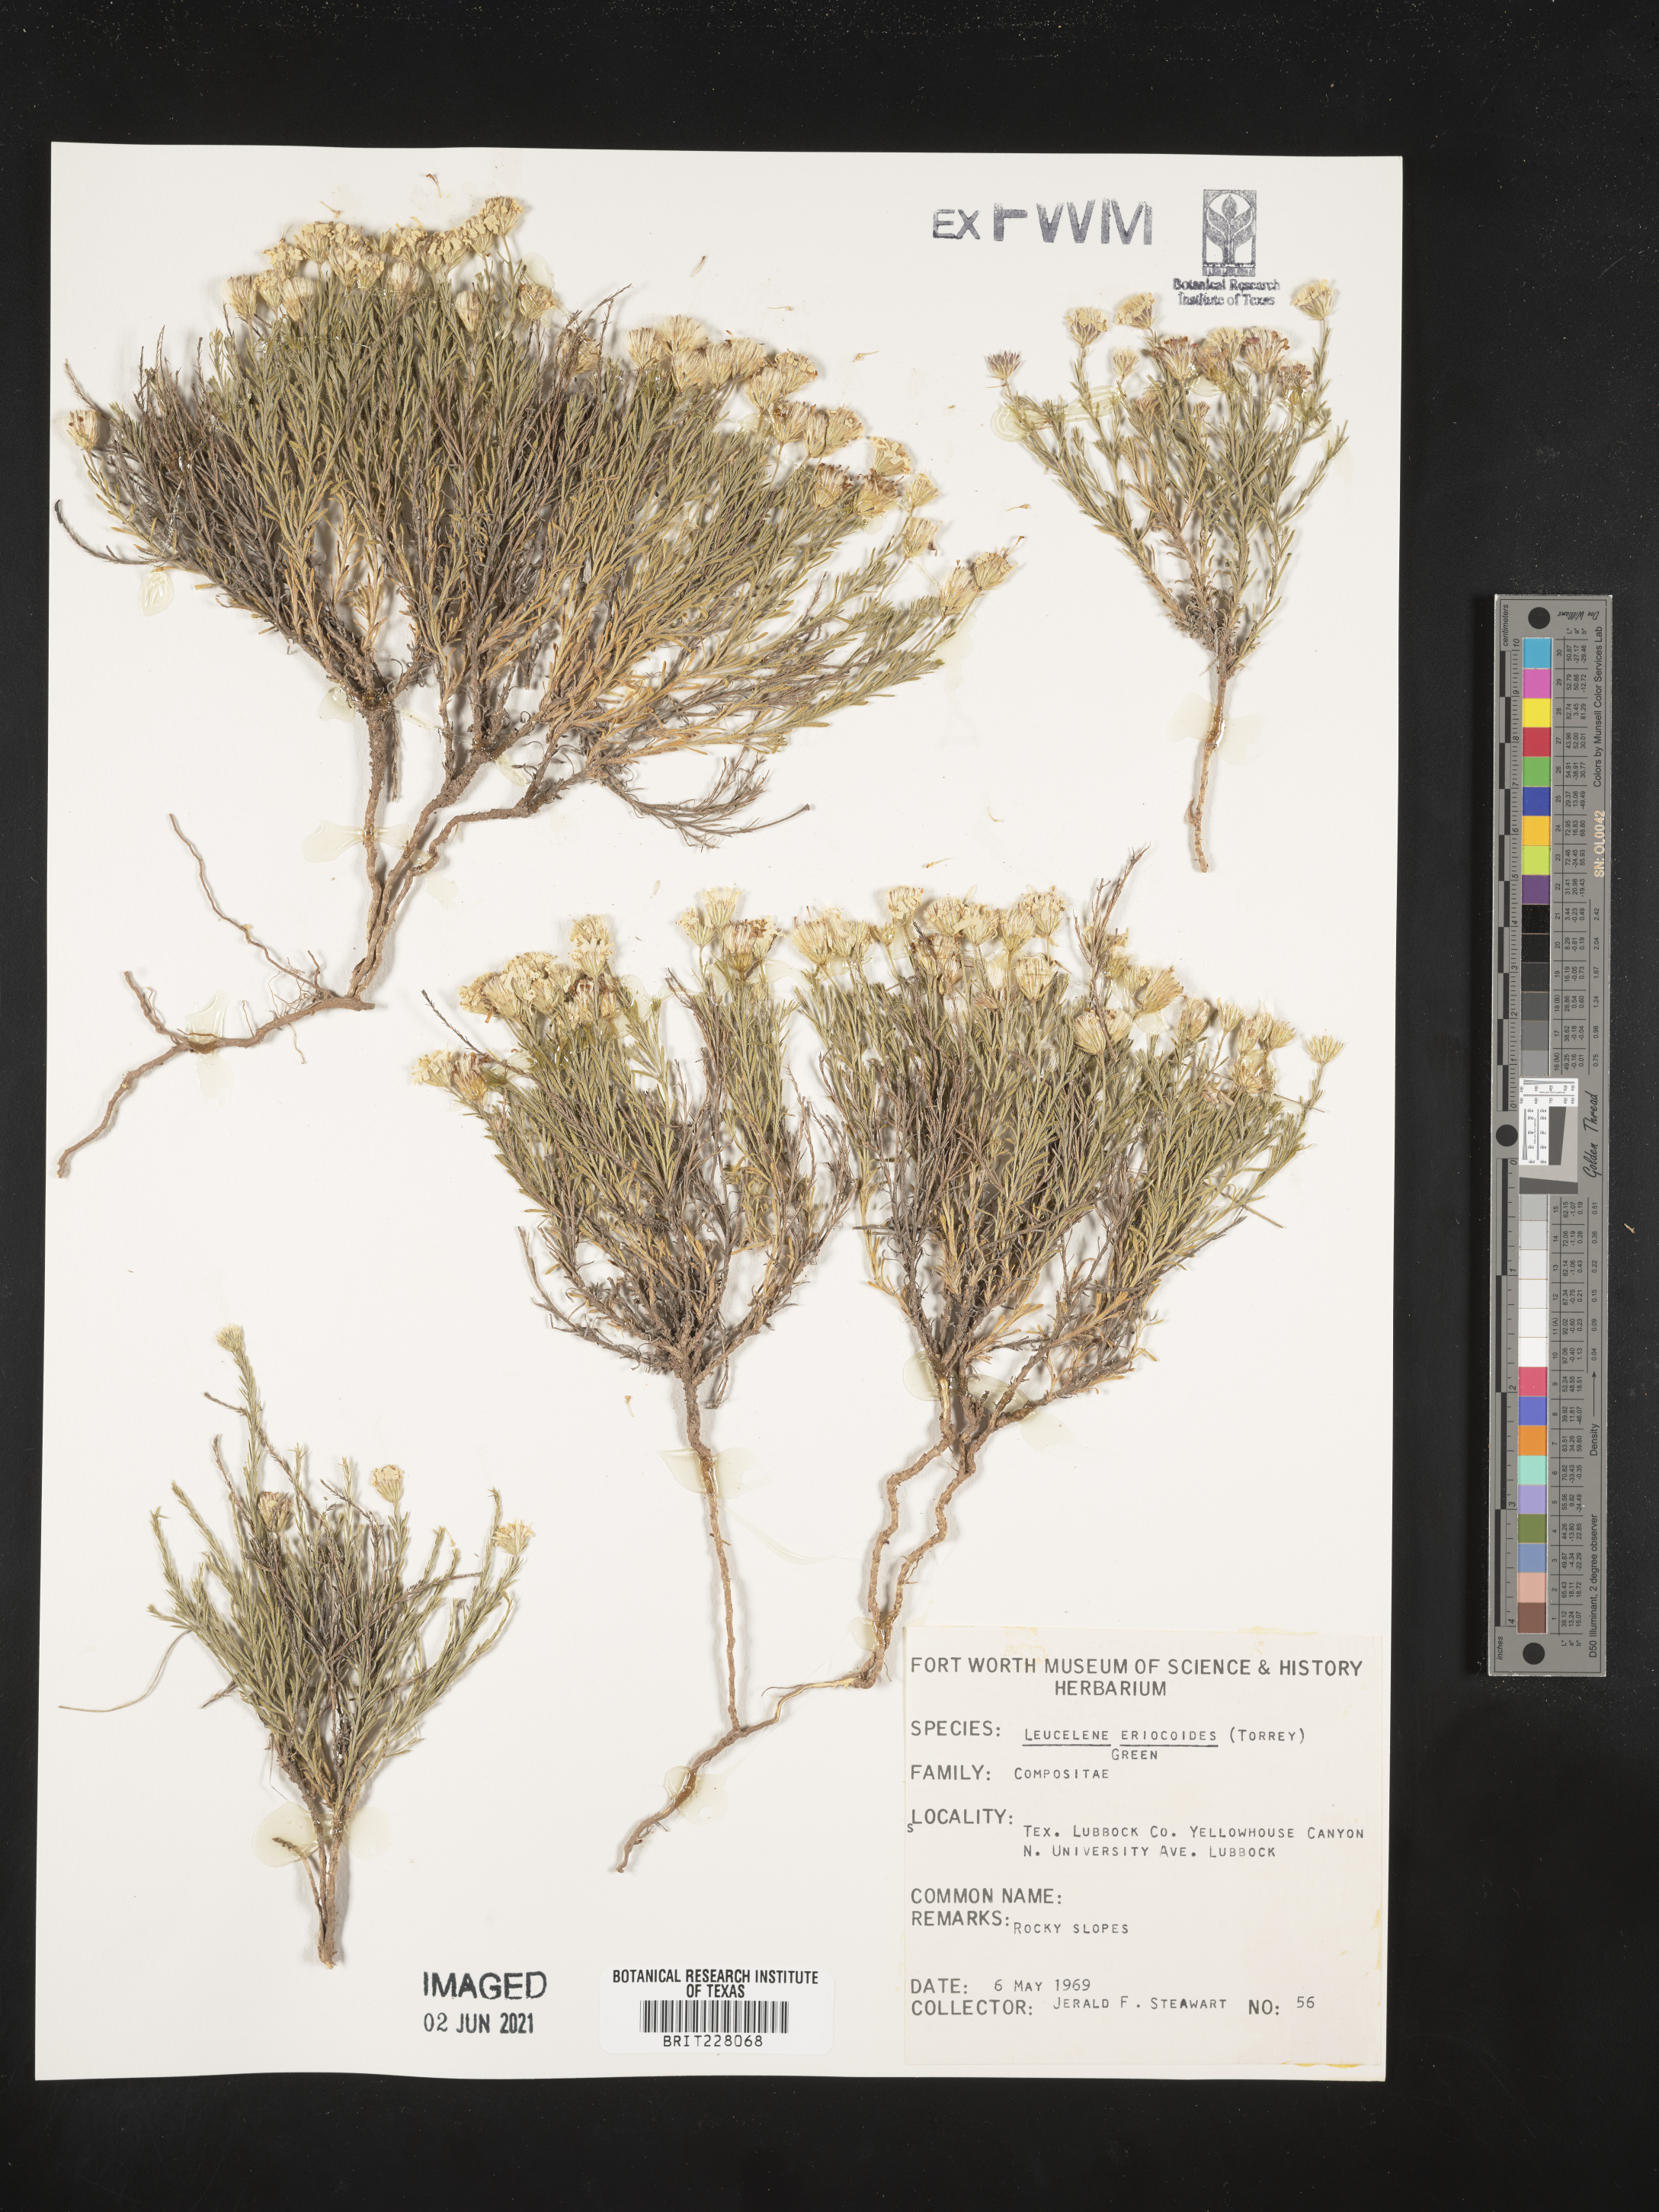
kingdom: Plantae
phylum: Tracheophyta
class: Magnoliopsida
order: Asterales
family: Asteraceae
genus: Chaetopappa
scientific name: Chaetopappa ericoides
